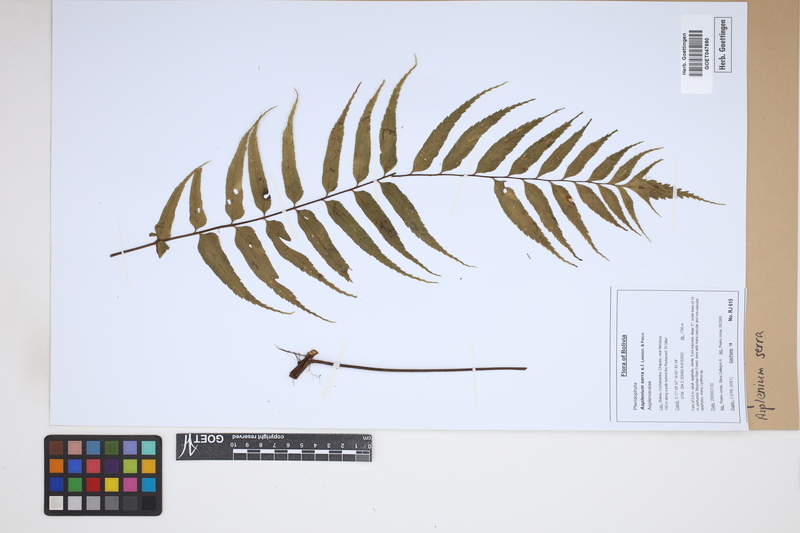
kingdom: Plantae
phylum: Tracheophyta
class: Polypodiopsida
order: Polypodiales
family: Aspleniaceae
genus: Asplenium
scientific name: Asplenium serra
